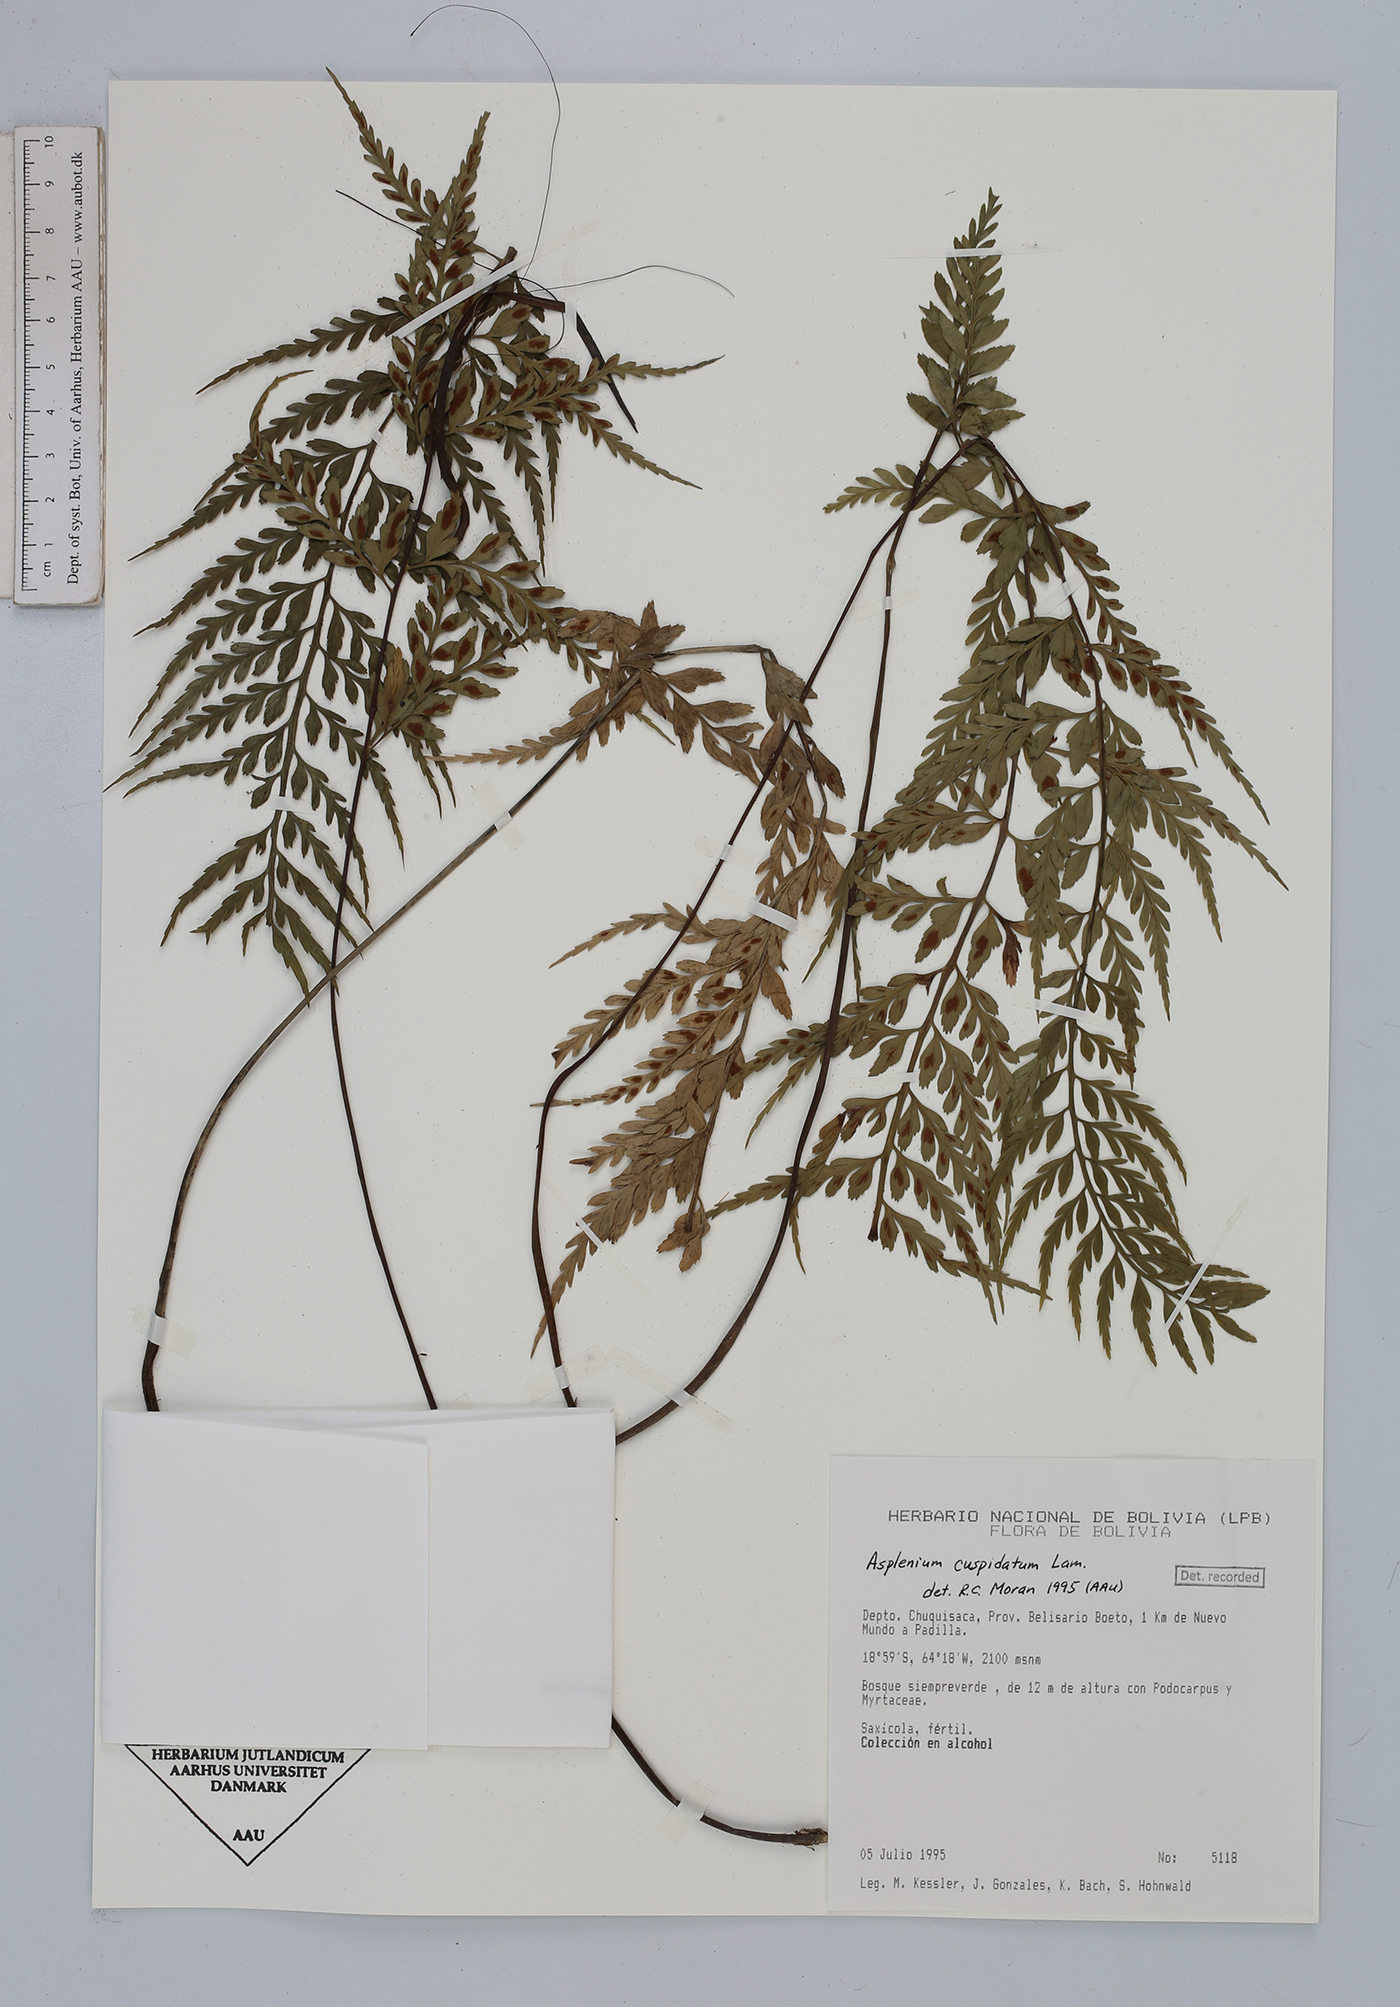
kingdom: Plantae
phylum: Tracheophyta
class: Polypodiopsida
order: Polypodiales
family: Aspleniaceae
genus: Asplenium
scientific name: Asplenium cuspidatum
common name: Eared spleenwort
